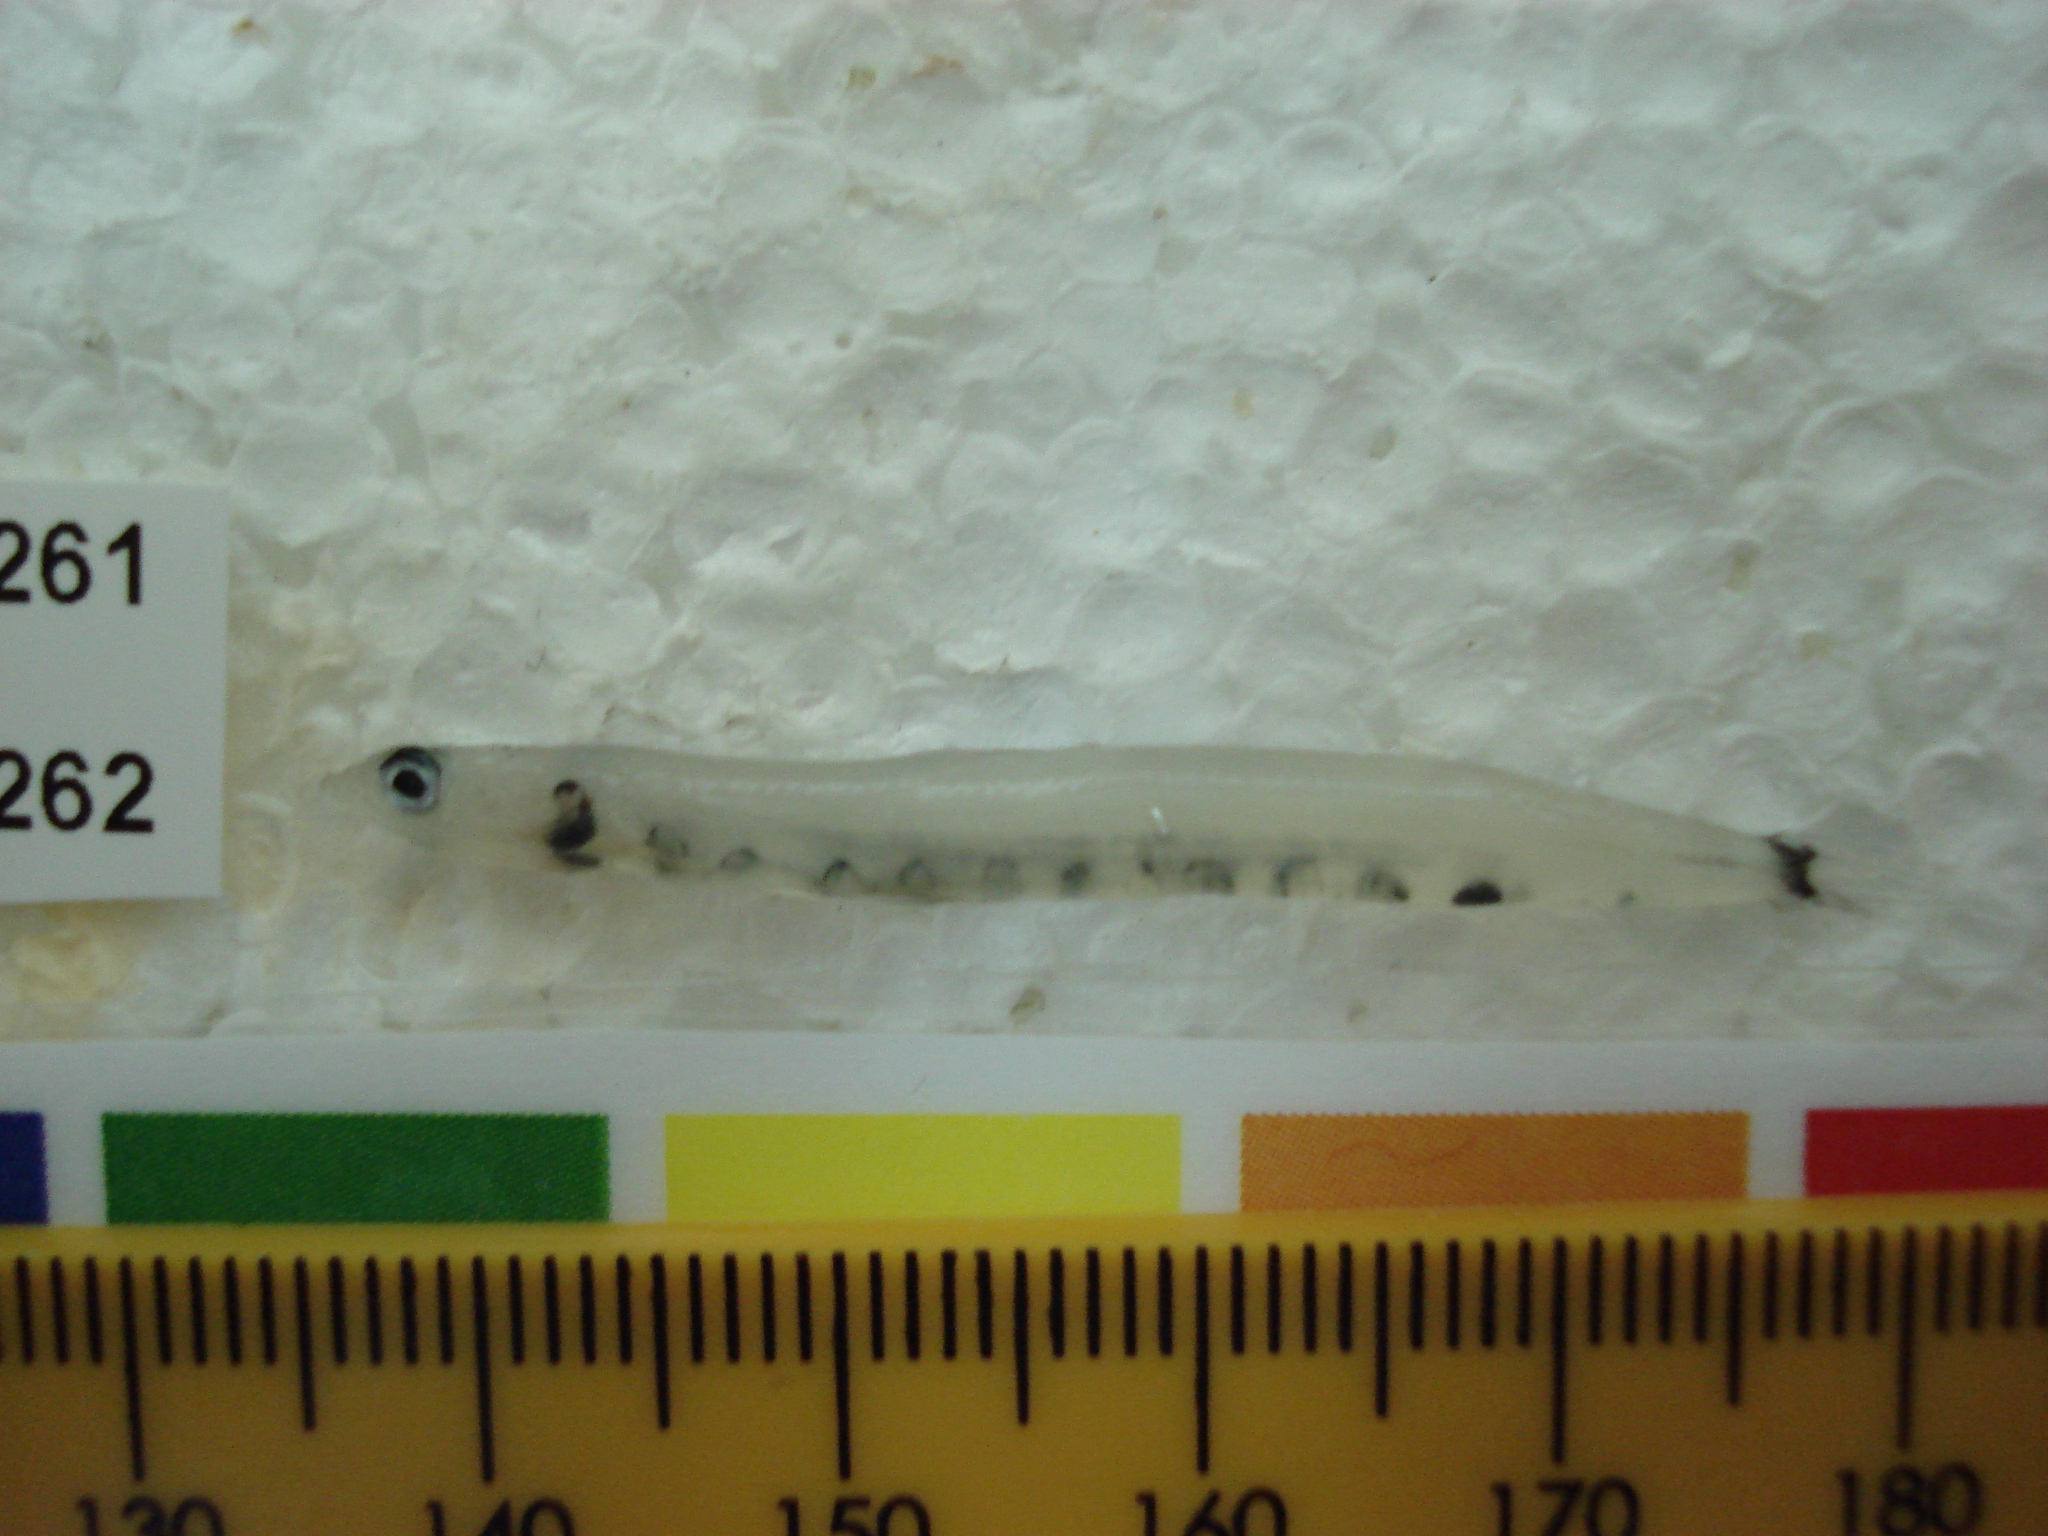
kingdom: Animalia
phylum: Chordata
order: Aulopiformes
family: Synodontidae
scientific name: Synodontidae
